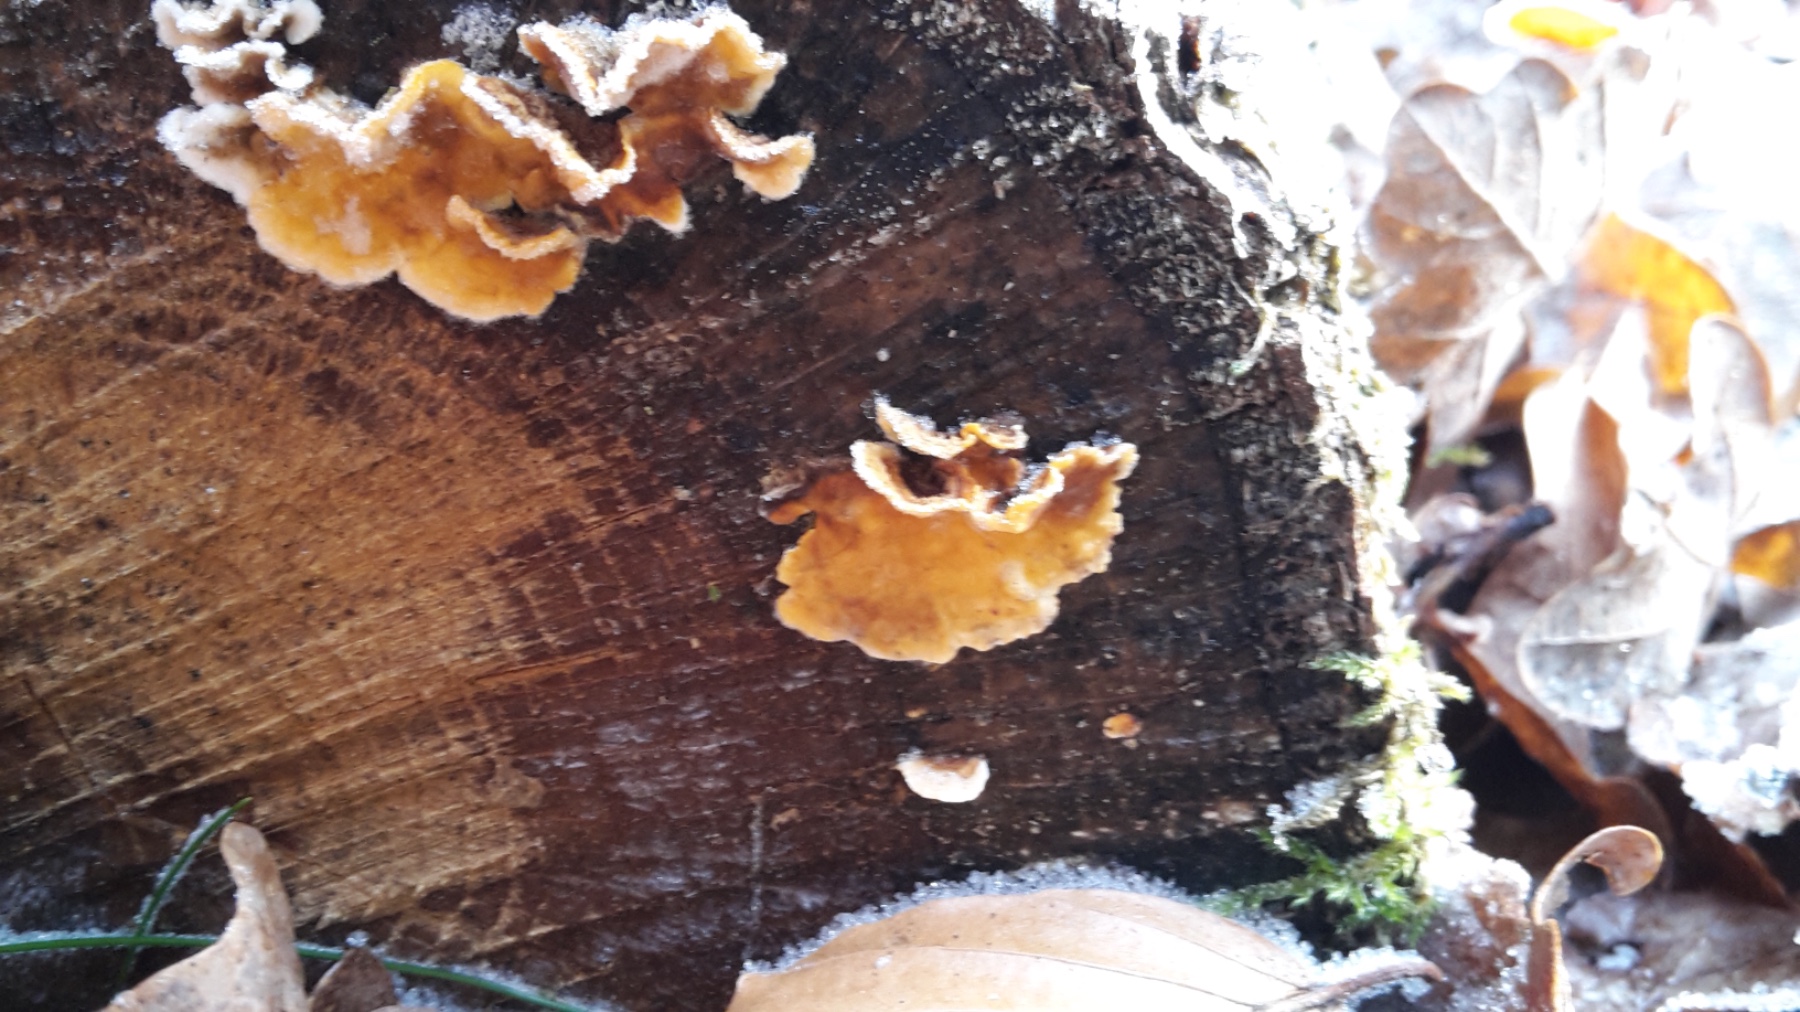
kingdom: Fungi
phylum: Basidiomycota
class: Agaricomycetes
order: Russulales
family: Stereaceae
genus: Stereum
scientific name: Stereum hirsutum
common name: håret lædersvamp
